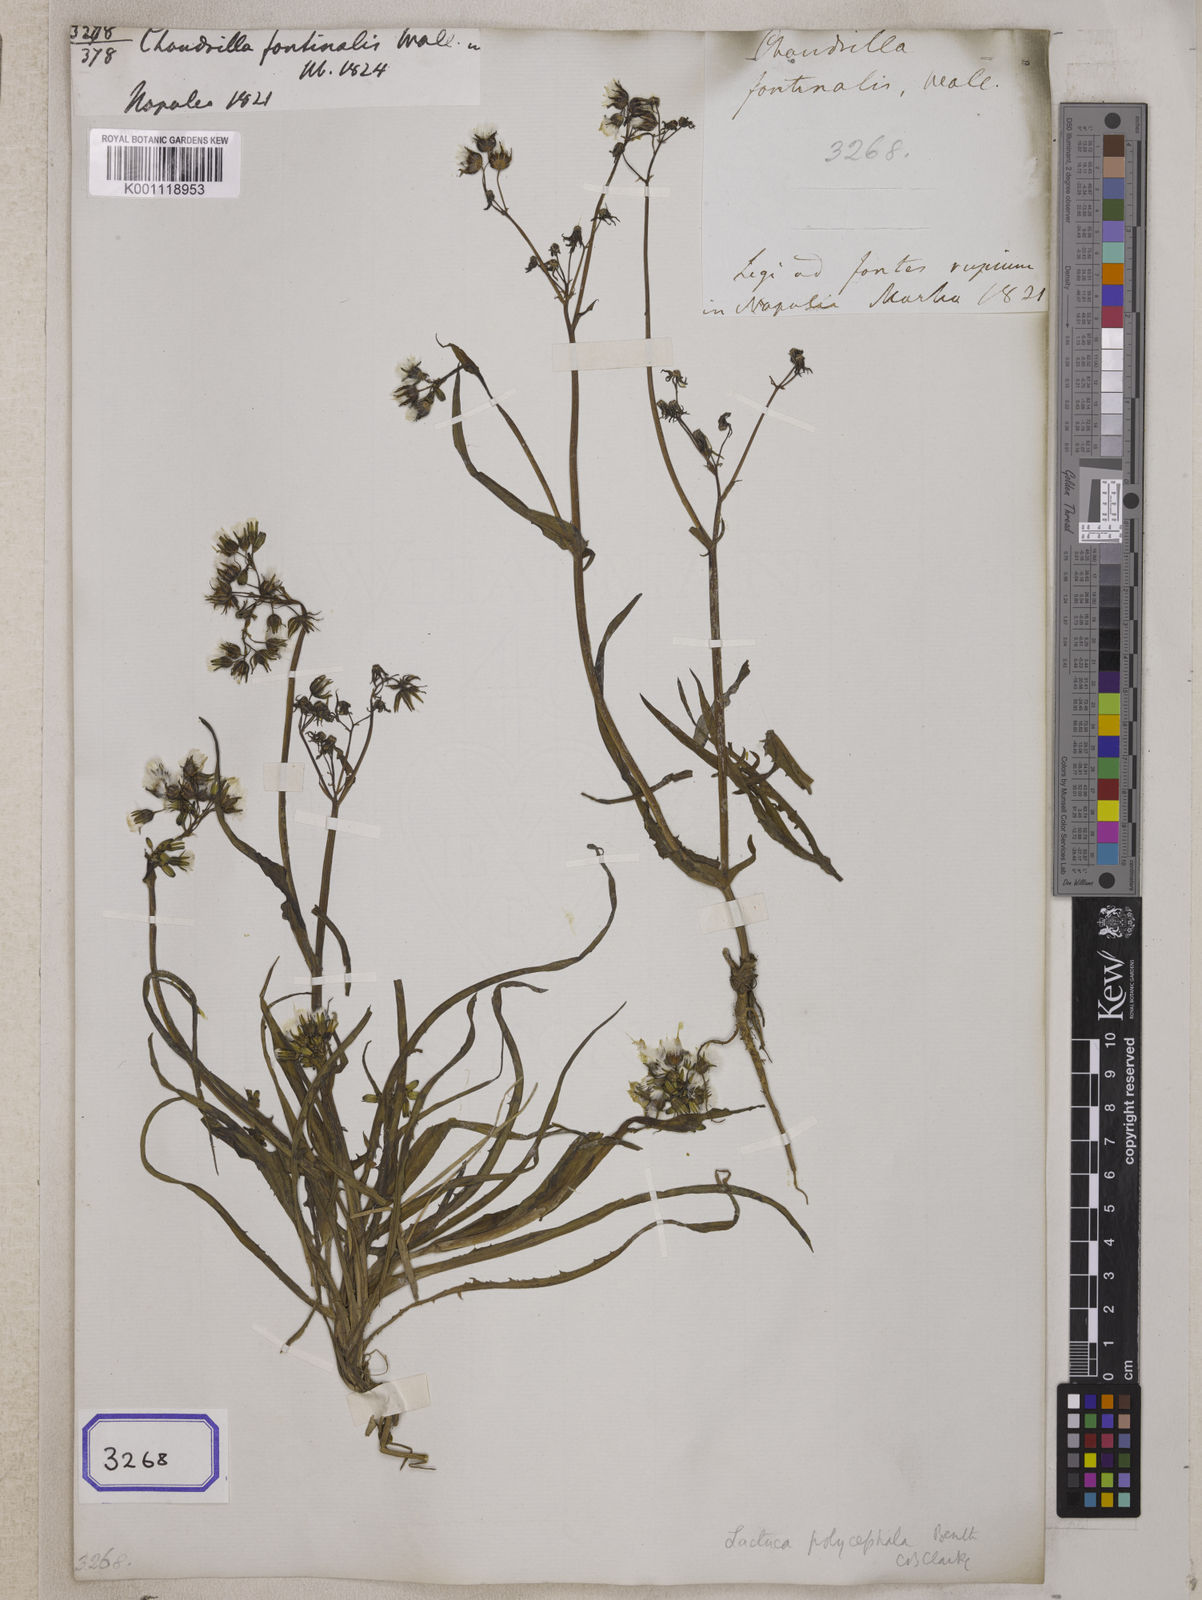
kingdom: Plantae
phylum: Tracheophyta
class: Magnoliopsida
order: Asterales
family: Asteraceae
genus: Ixeris
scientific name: Ixeris polycephala
